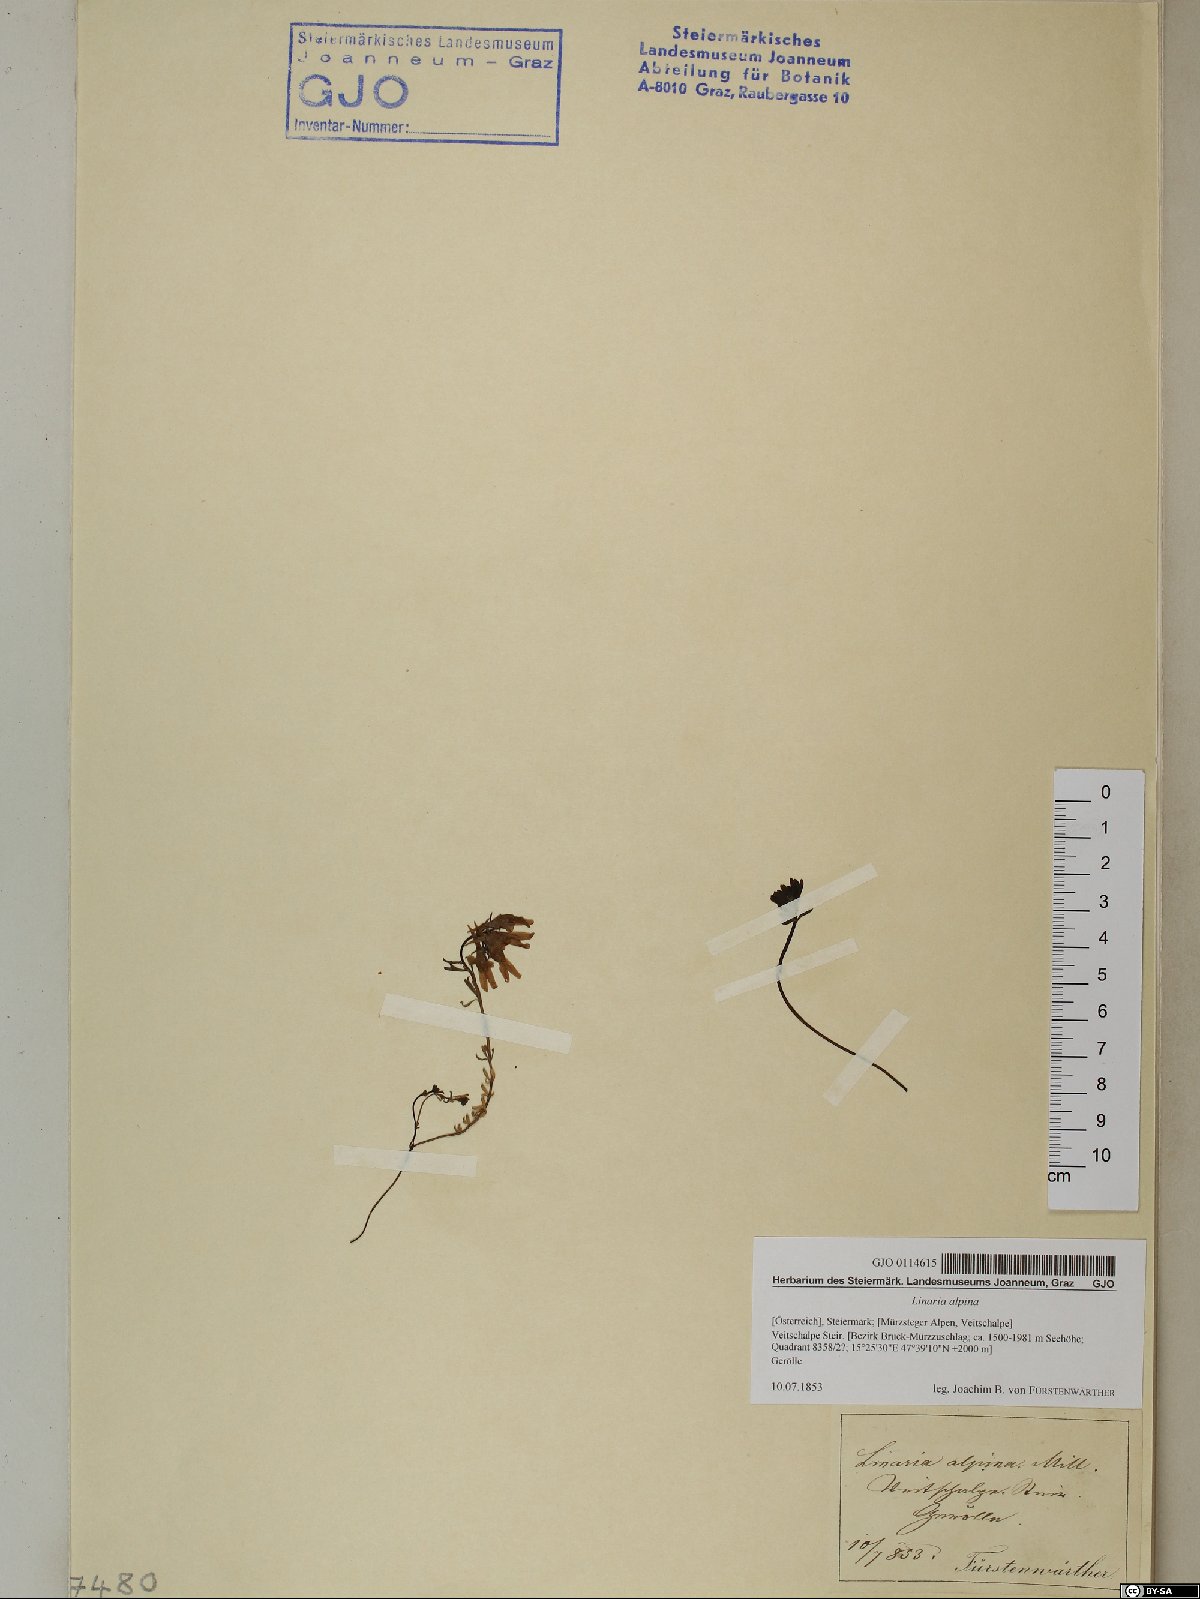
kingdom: Plantae
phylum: Tracheophyta
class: Magnoliopsida
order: Lamiales
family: Plantaginaceae
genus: Linaria
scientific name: Linaria alpina
